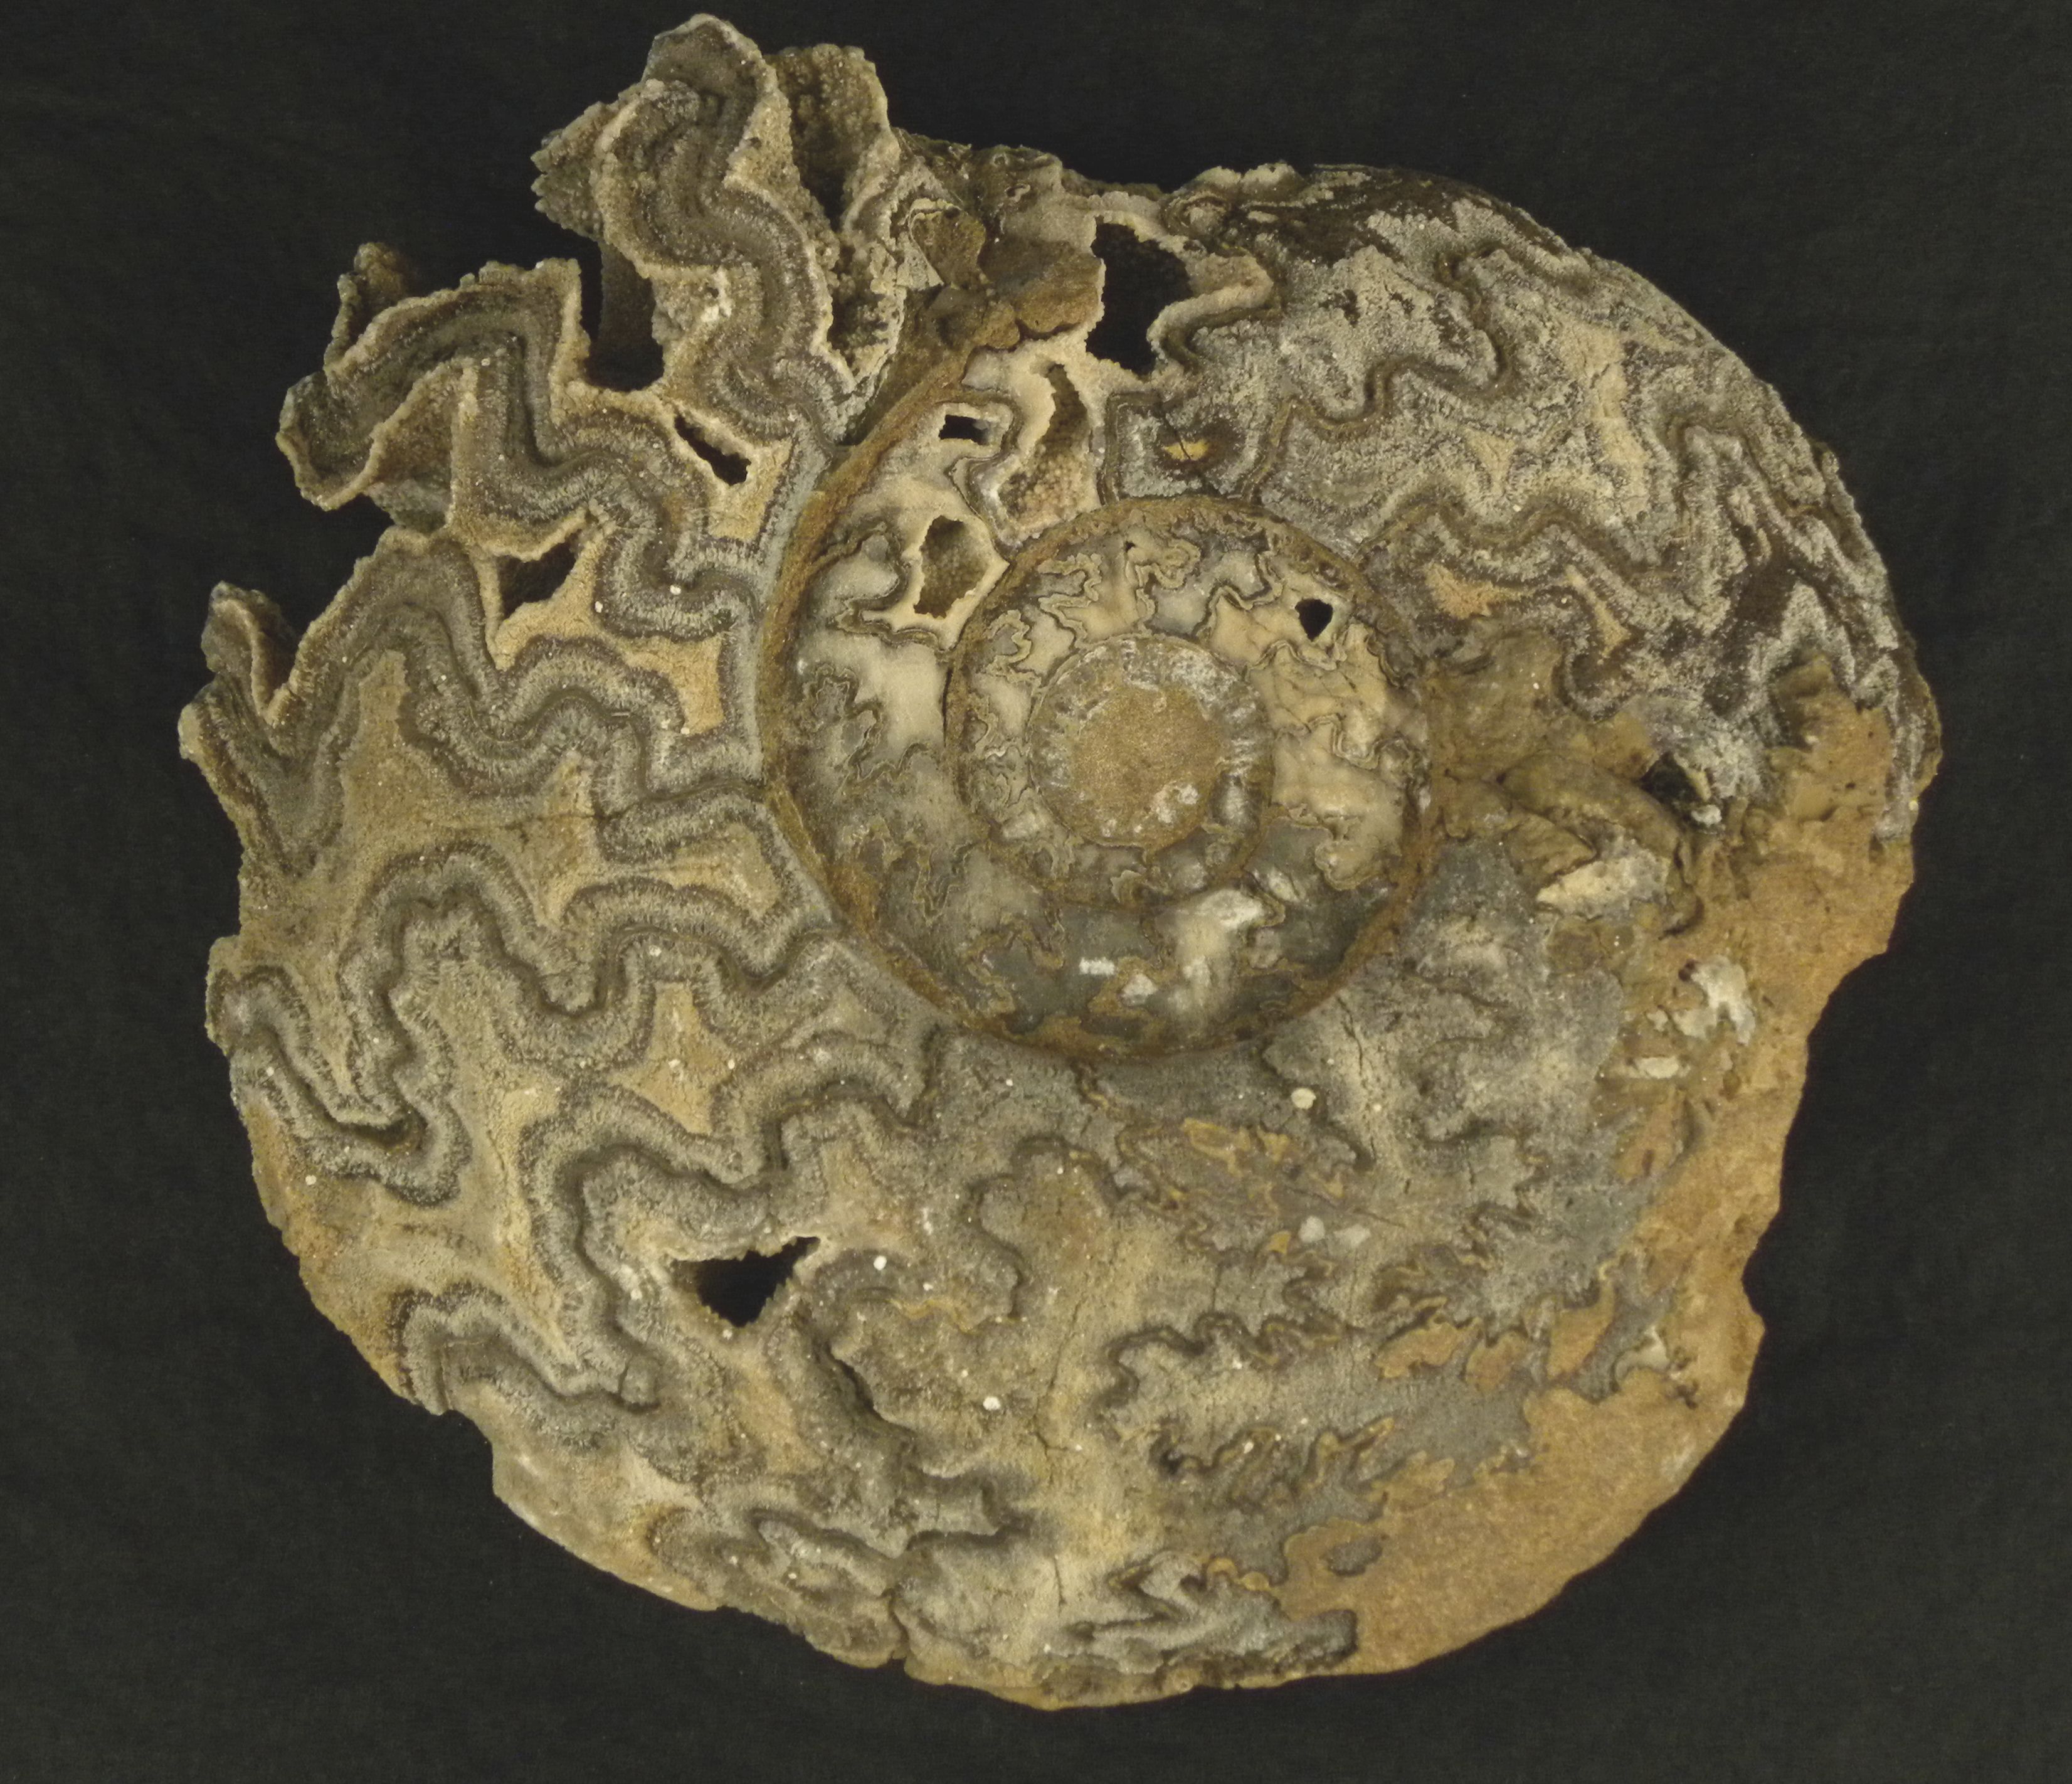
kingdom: Animalia
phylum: Mollusca
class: Cephalopoda
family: Hammatoceratidae
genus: Bredyia
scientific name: Bredyia
